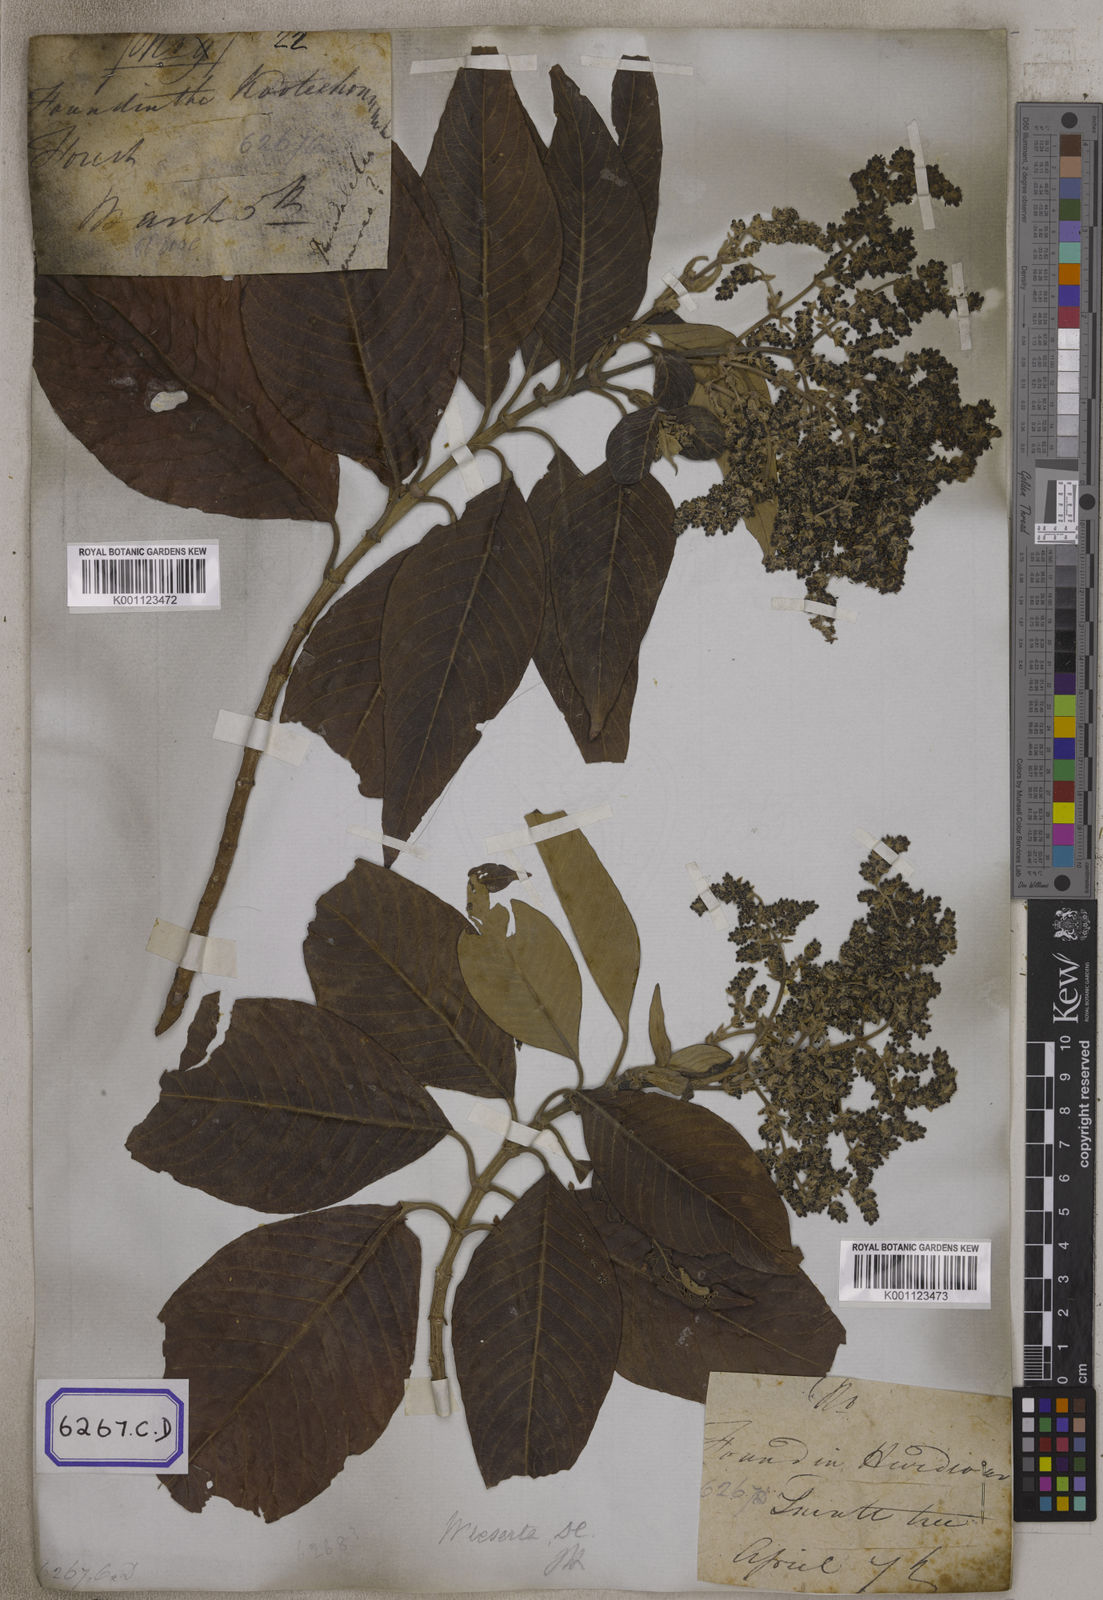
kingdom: Plantae
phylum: Tracheophyta
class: Magnoliopsida
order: Gentianales
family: Rubiaceae
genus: Wendlandia
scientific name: Wendlandia heynei
